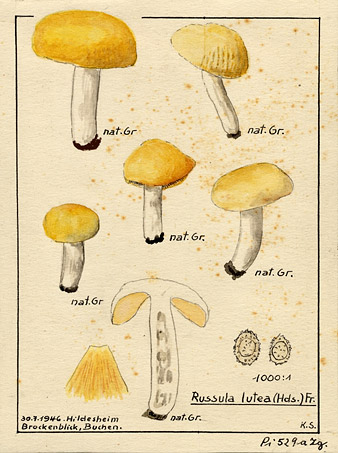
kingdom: Fungi
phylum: Basidiomycota
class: Agaricomycetes
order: Russulales
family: Russulaceae
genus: Russula
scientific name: Russula risigallina
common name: Golden brittlegill
